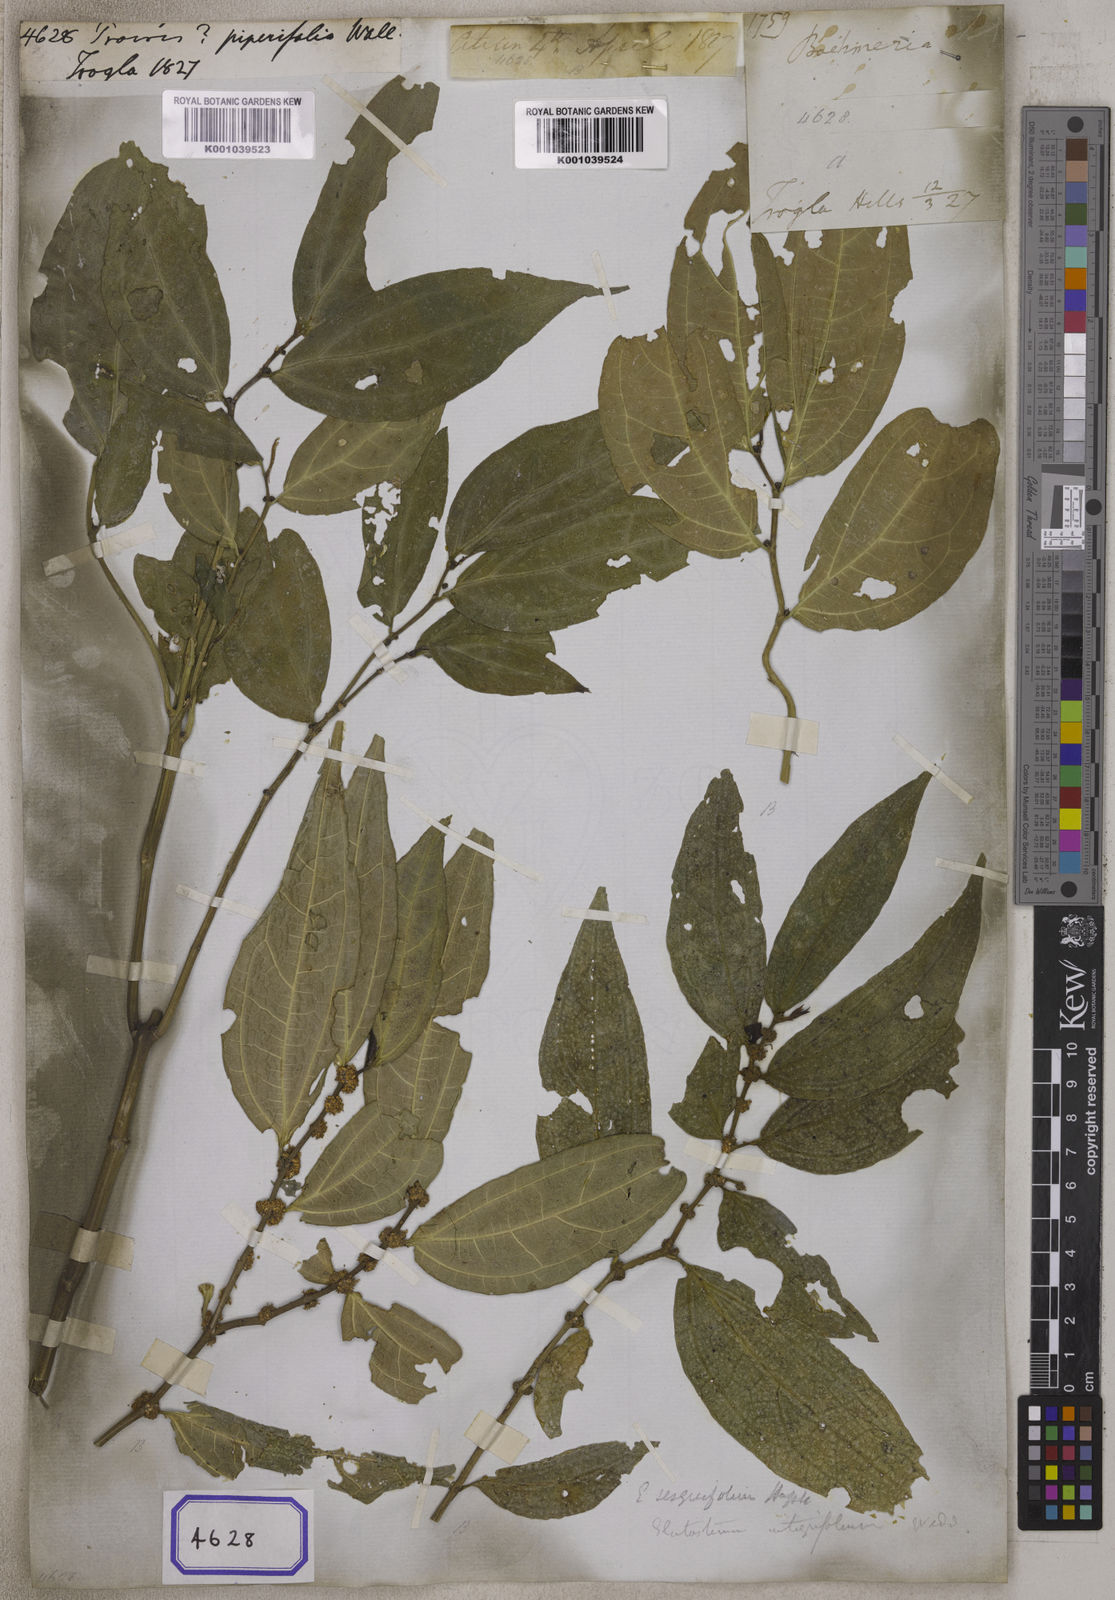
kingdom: Plantae
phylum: Tracheophyta
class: Magnoliopsida
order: Rosales
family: Urticaceae
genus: Elatostema
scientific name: Elatostema integrifolium
